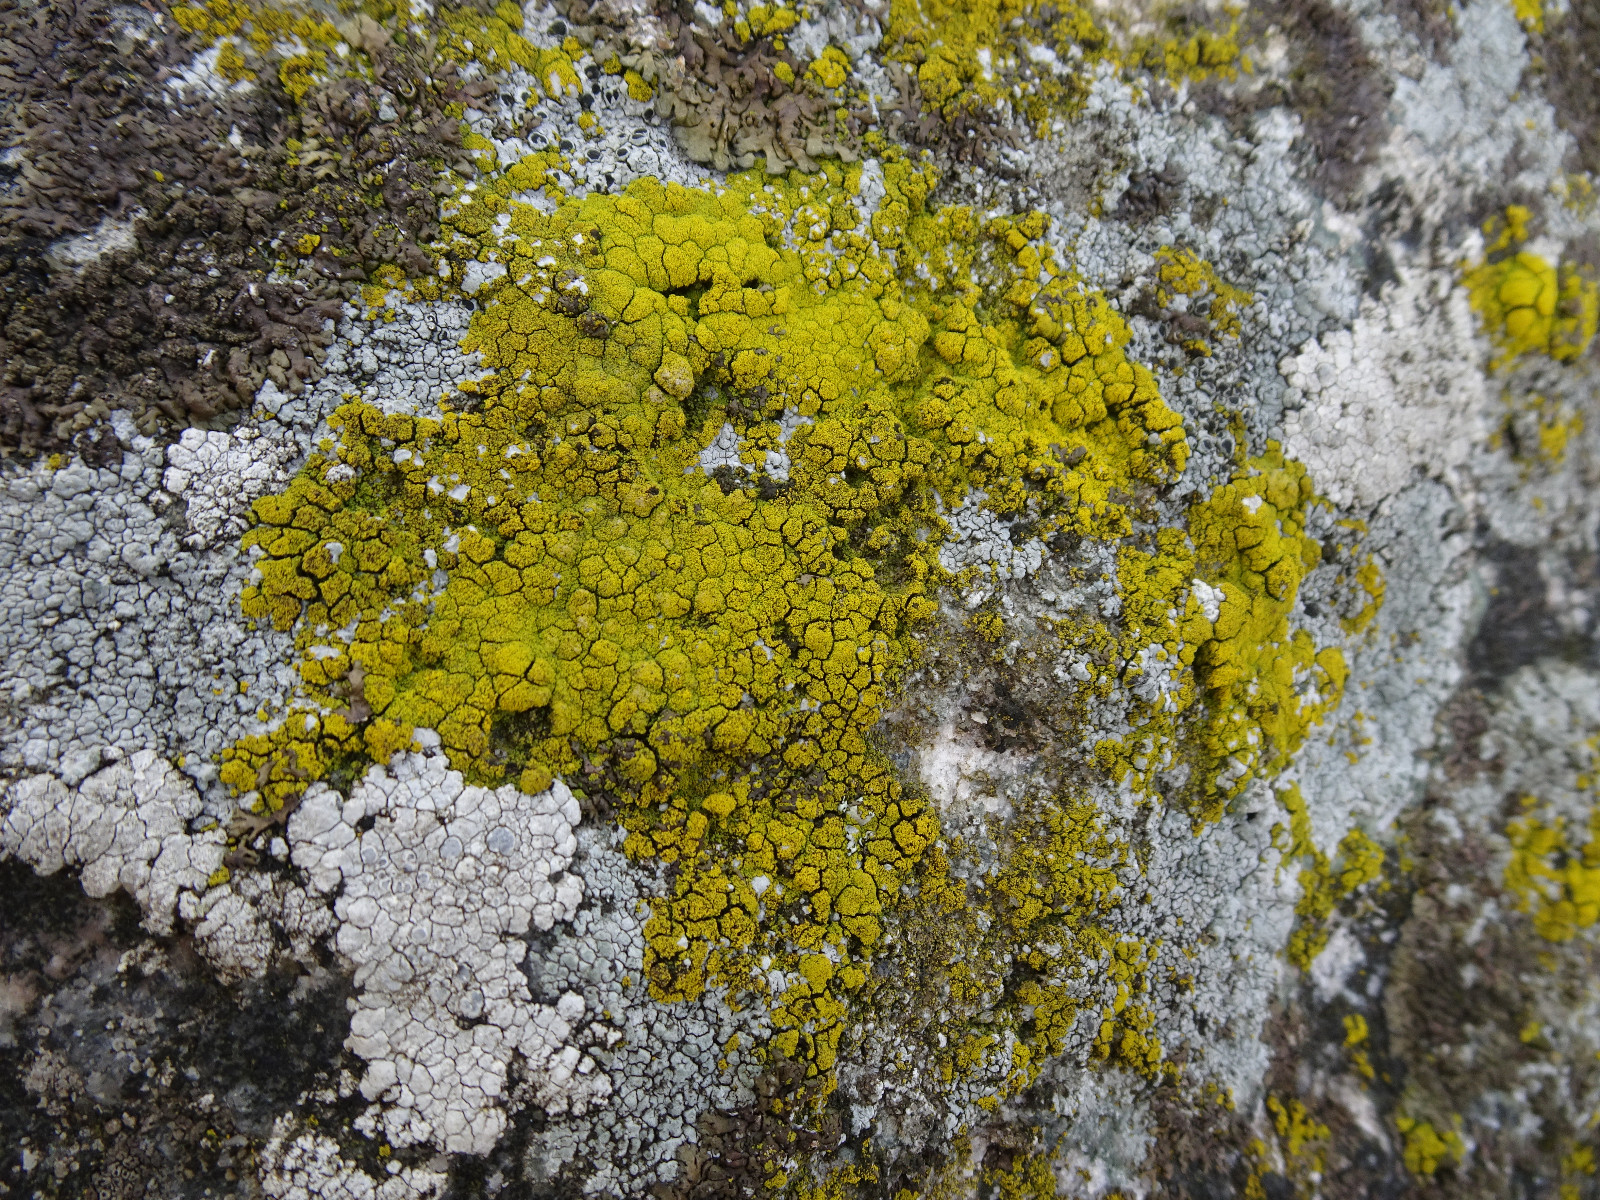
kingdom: Fungi
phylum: Ascomycota
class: Candelariomycetes
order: Candelariales
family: Candelariaceae
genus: Candelariella
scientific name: Candelariella vitellina
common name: almindelig æggeblommelav
